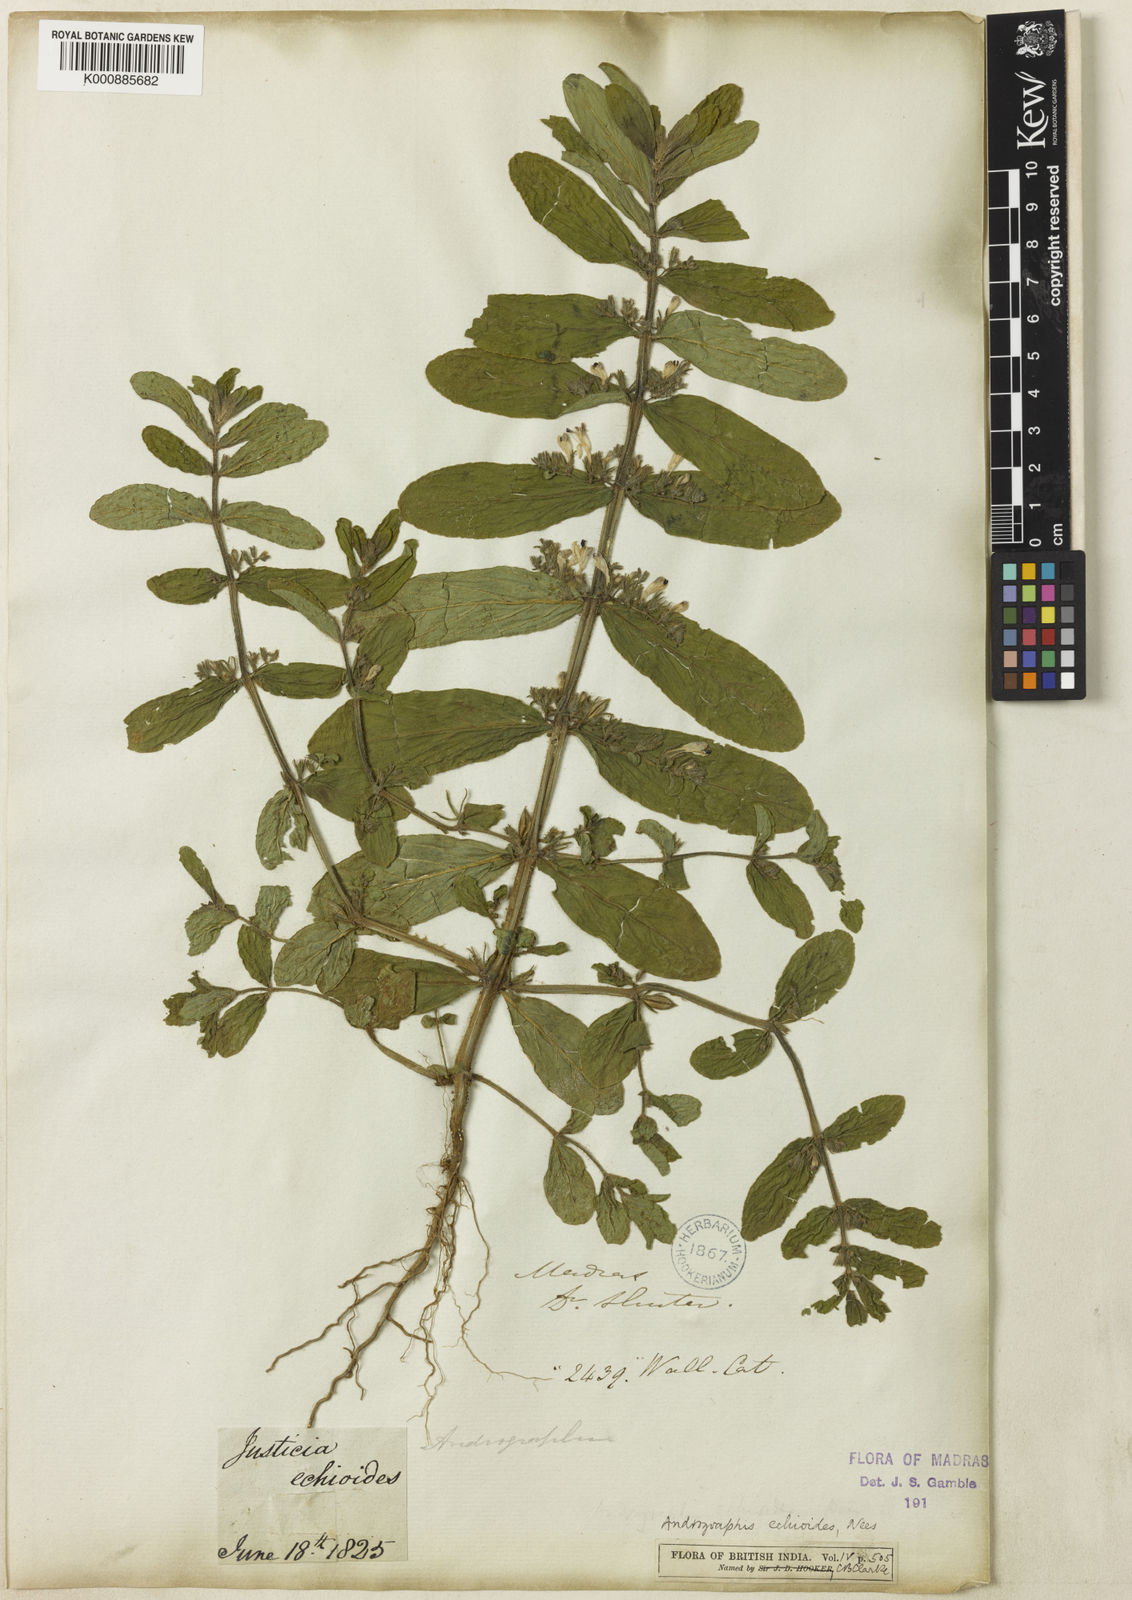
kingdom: Plantae
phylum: Tracheophyta
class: Magnoliopsida
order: Lamiales
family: Acanthaceae
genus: Andrographis
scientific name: Andrographis echioides
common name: False waterwillow
